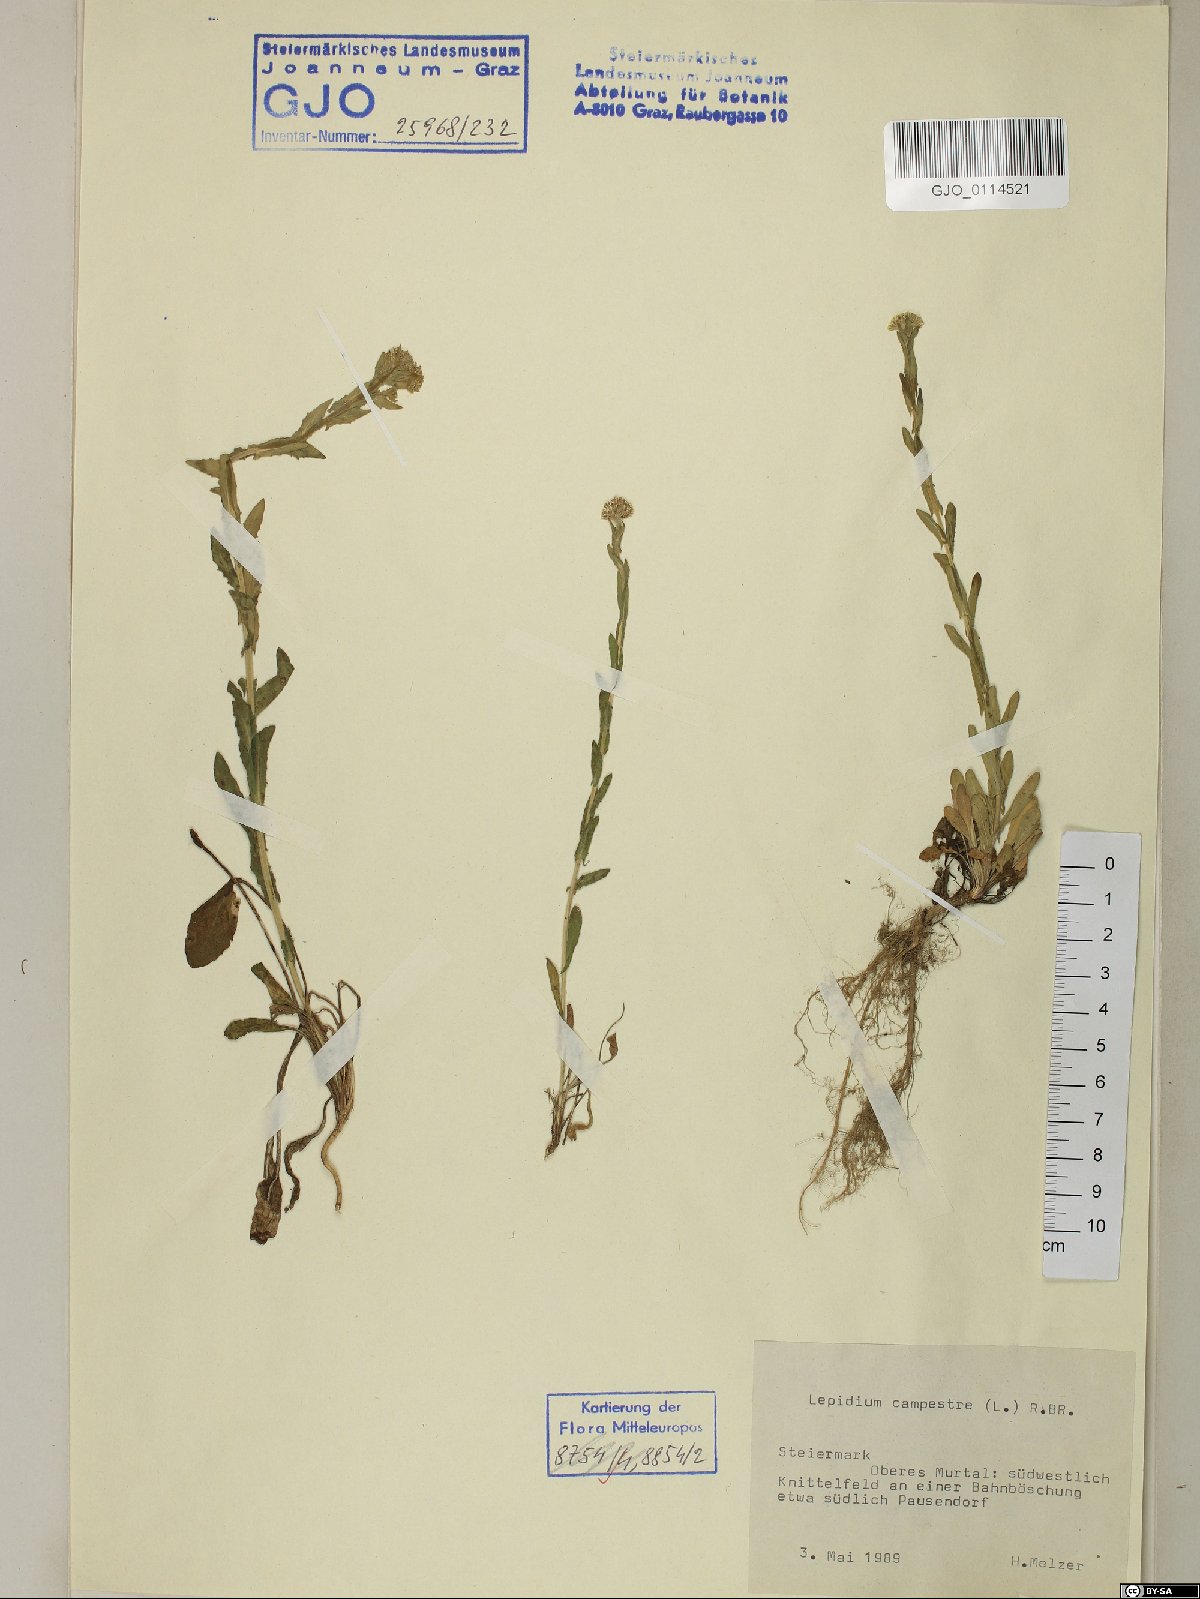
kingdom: Plantae
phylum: Tracheophyta
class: Magnoliopsida
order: Brassicales
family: Brassicaceae
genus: Lepidium
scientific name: Lepidium campestre
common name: Field pepperwort
